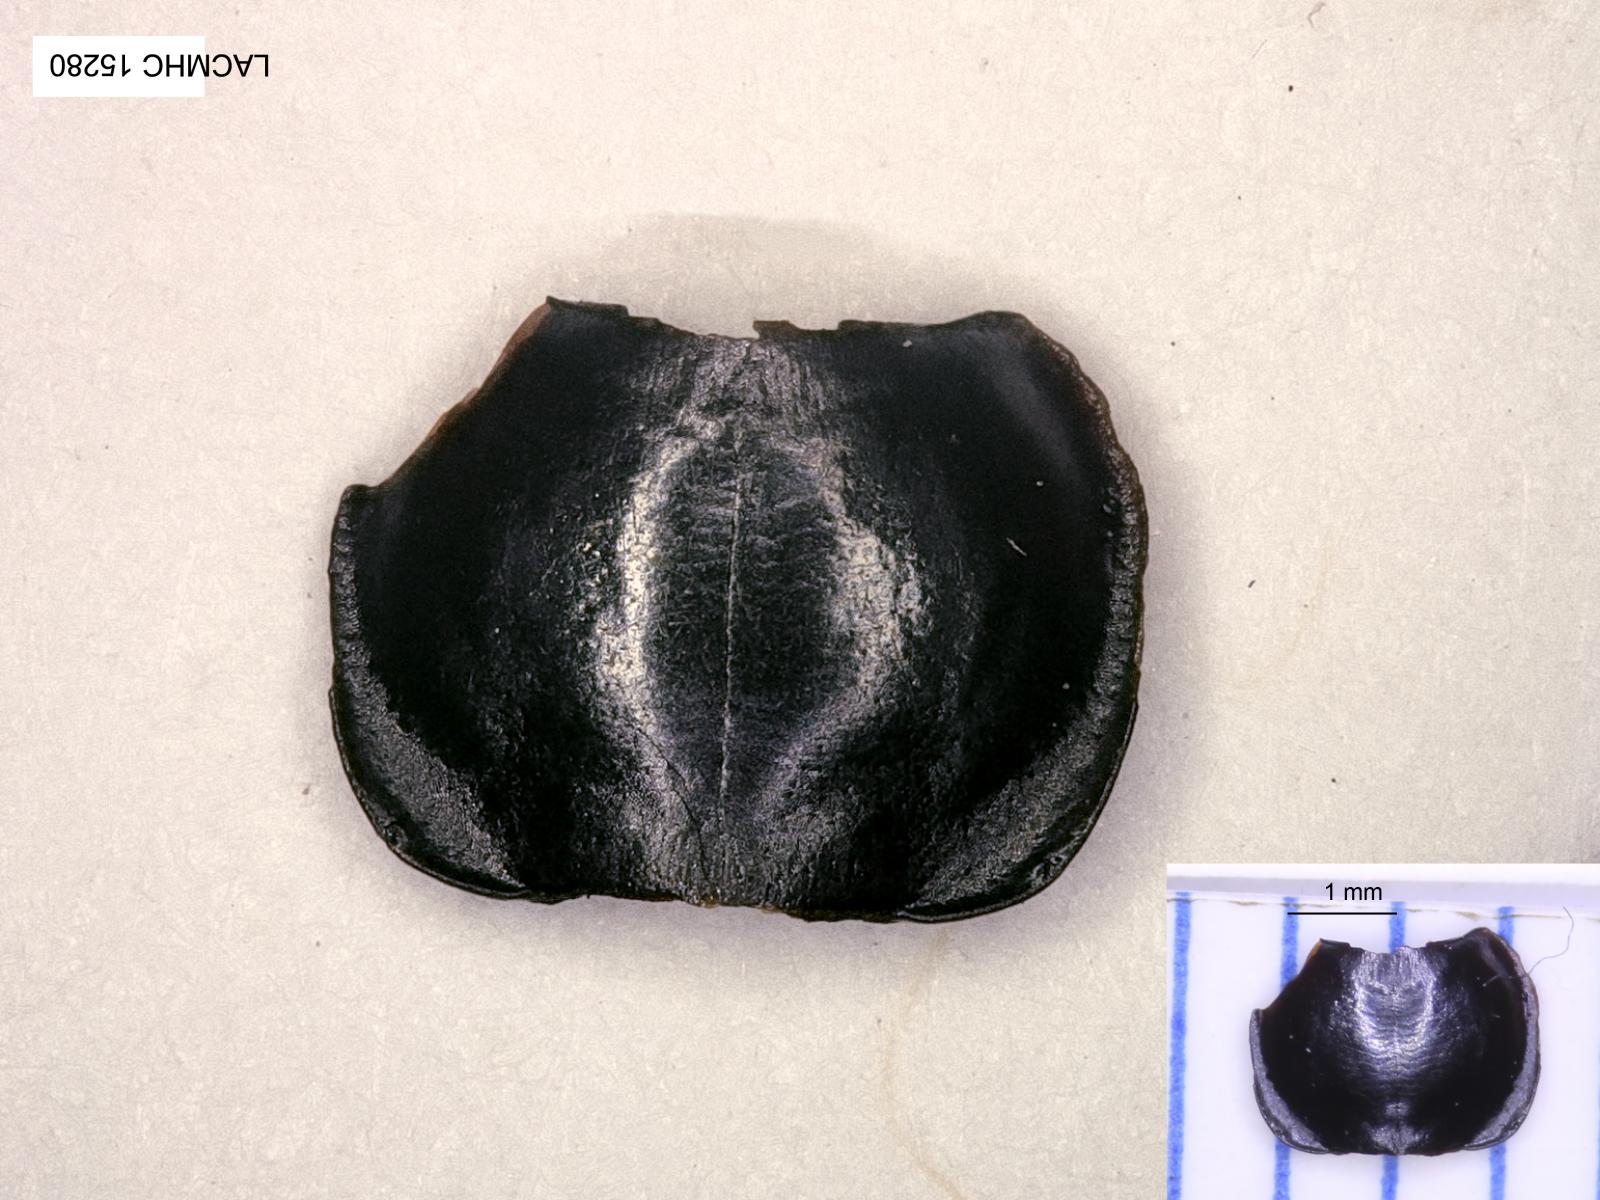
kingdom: Animalia
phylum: Arthropoda
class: Insecta
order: Coleoptera
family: Carabidae
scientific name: Carabidae
